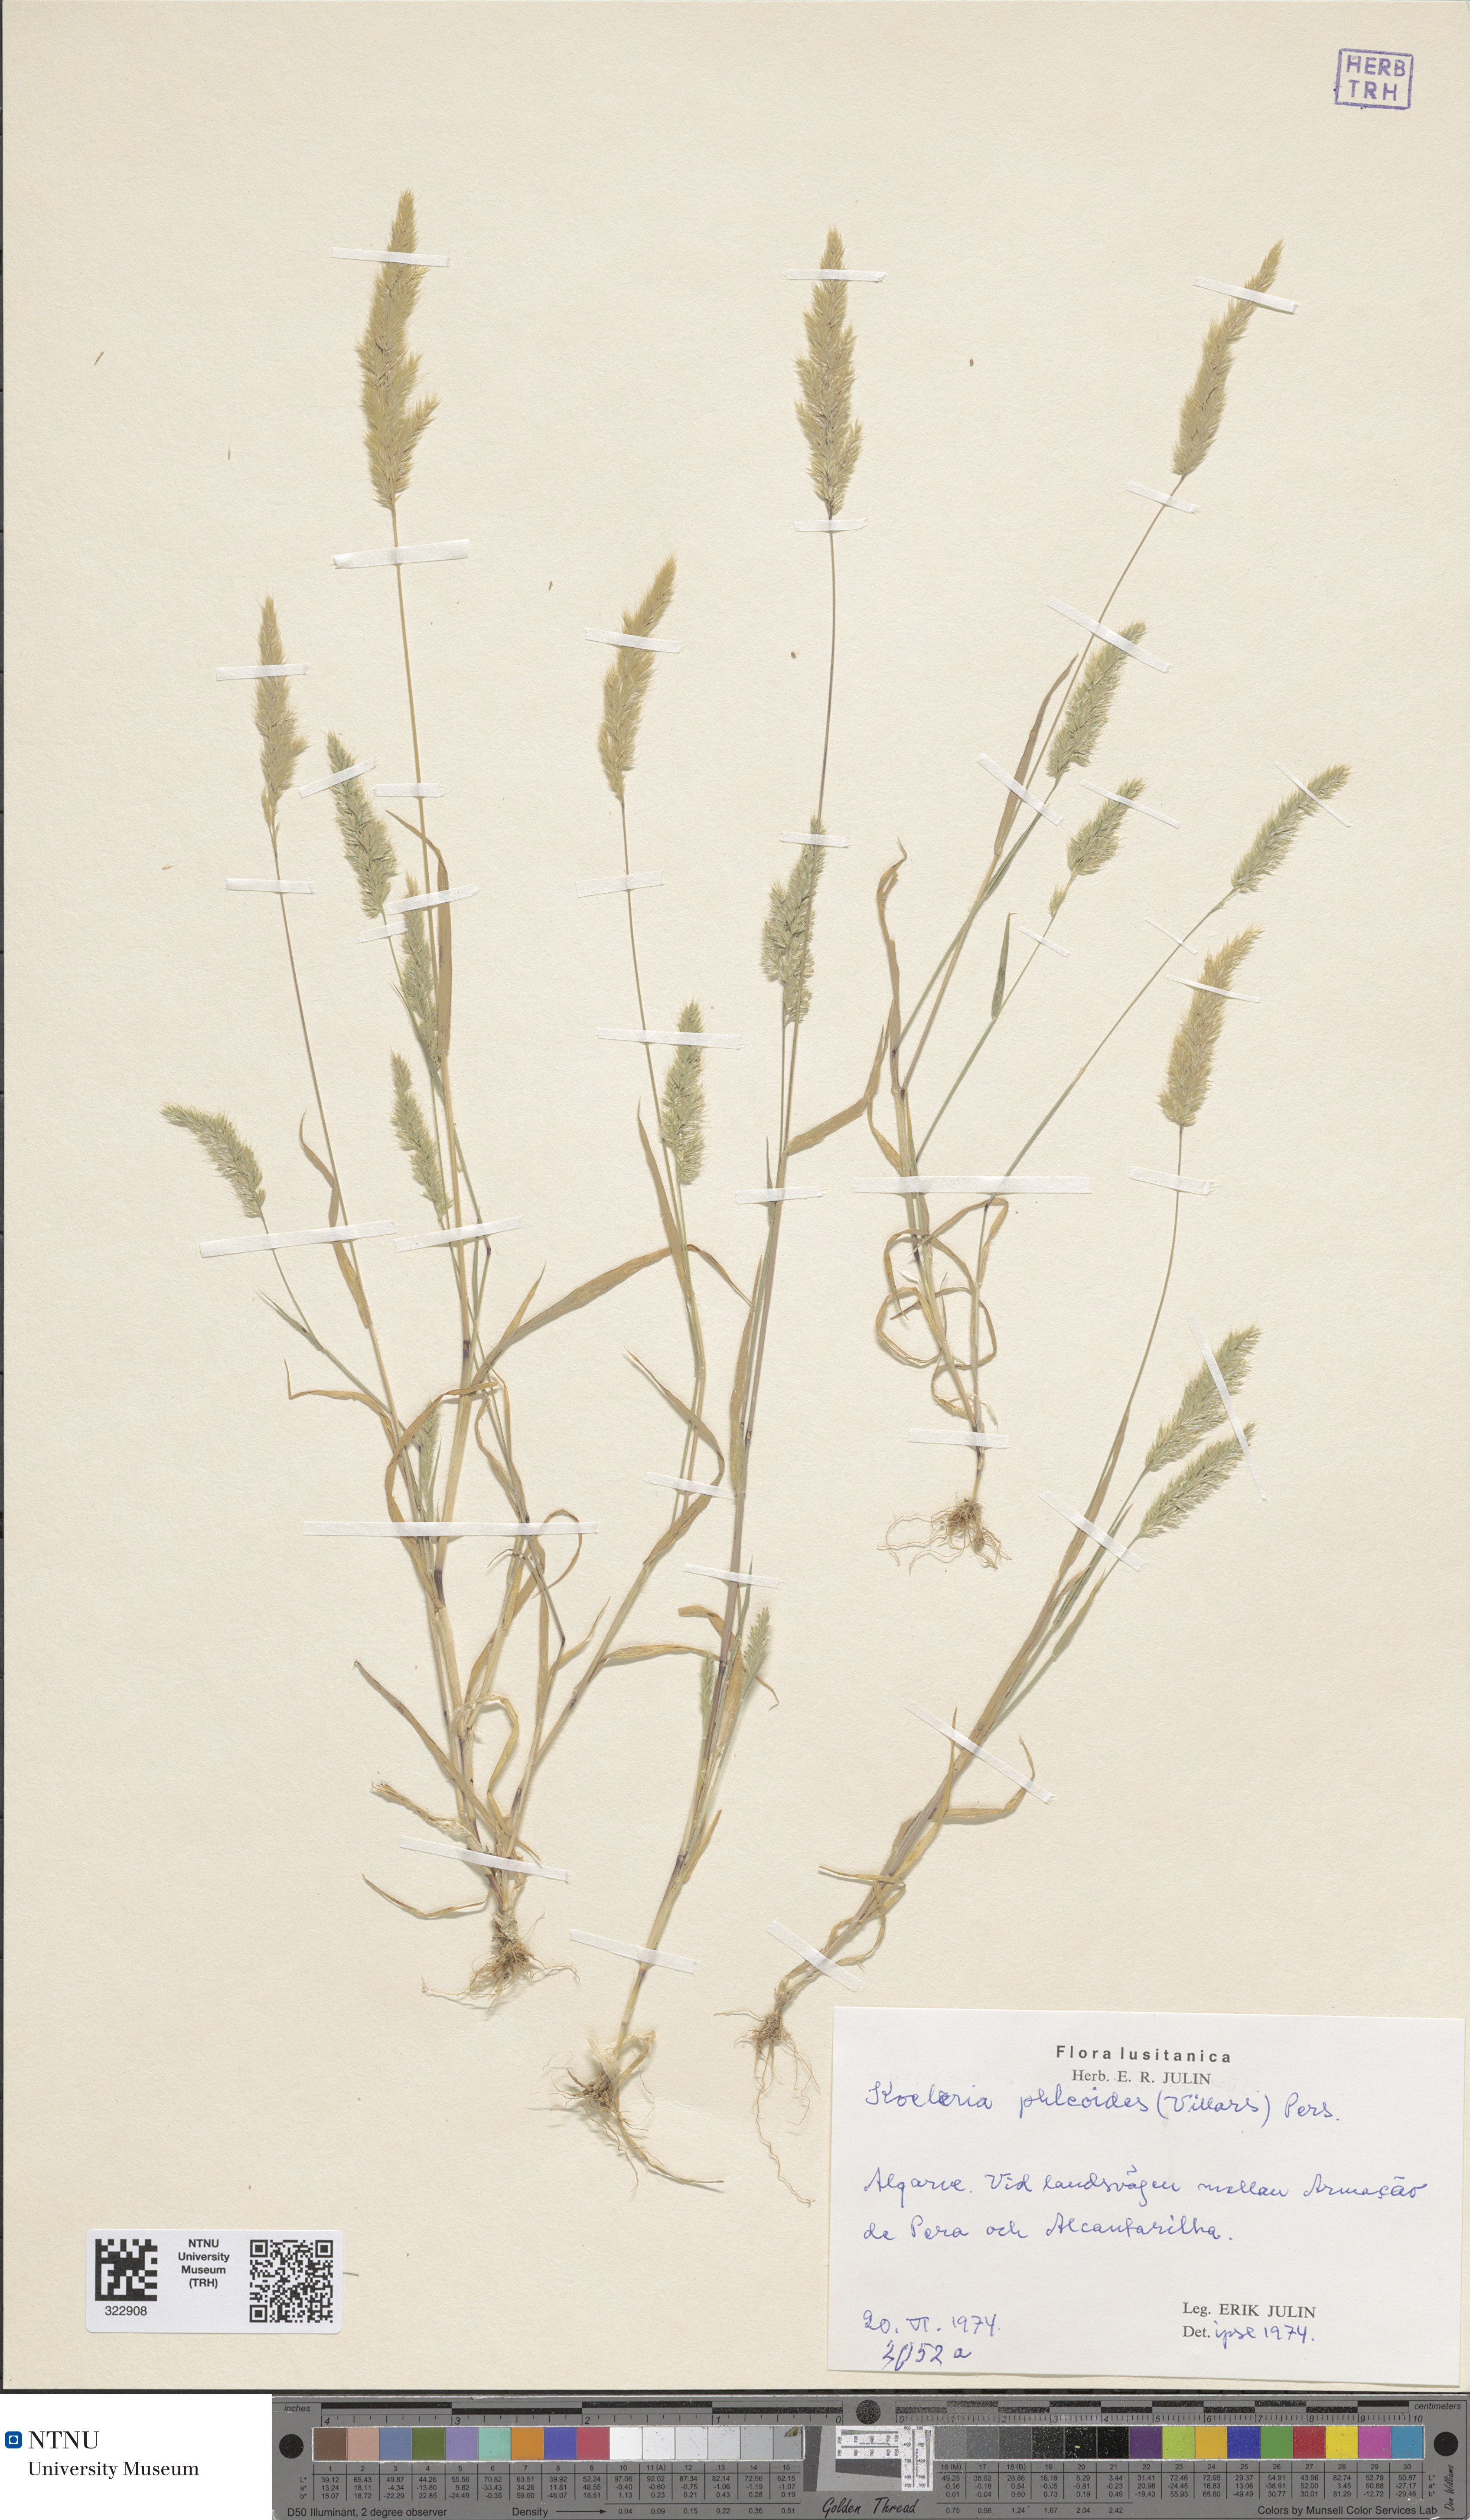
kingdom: Plantae
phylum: Tracheophyta
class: Liliopsida
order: Poales
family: Poaceae
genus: Rostraria
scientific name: Rostraria cristata
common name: Mediterranean hair-grass
